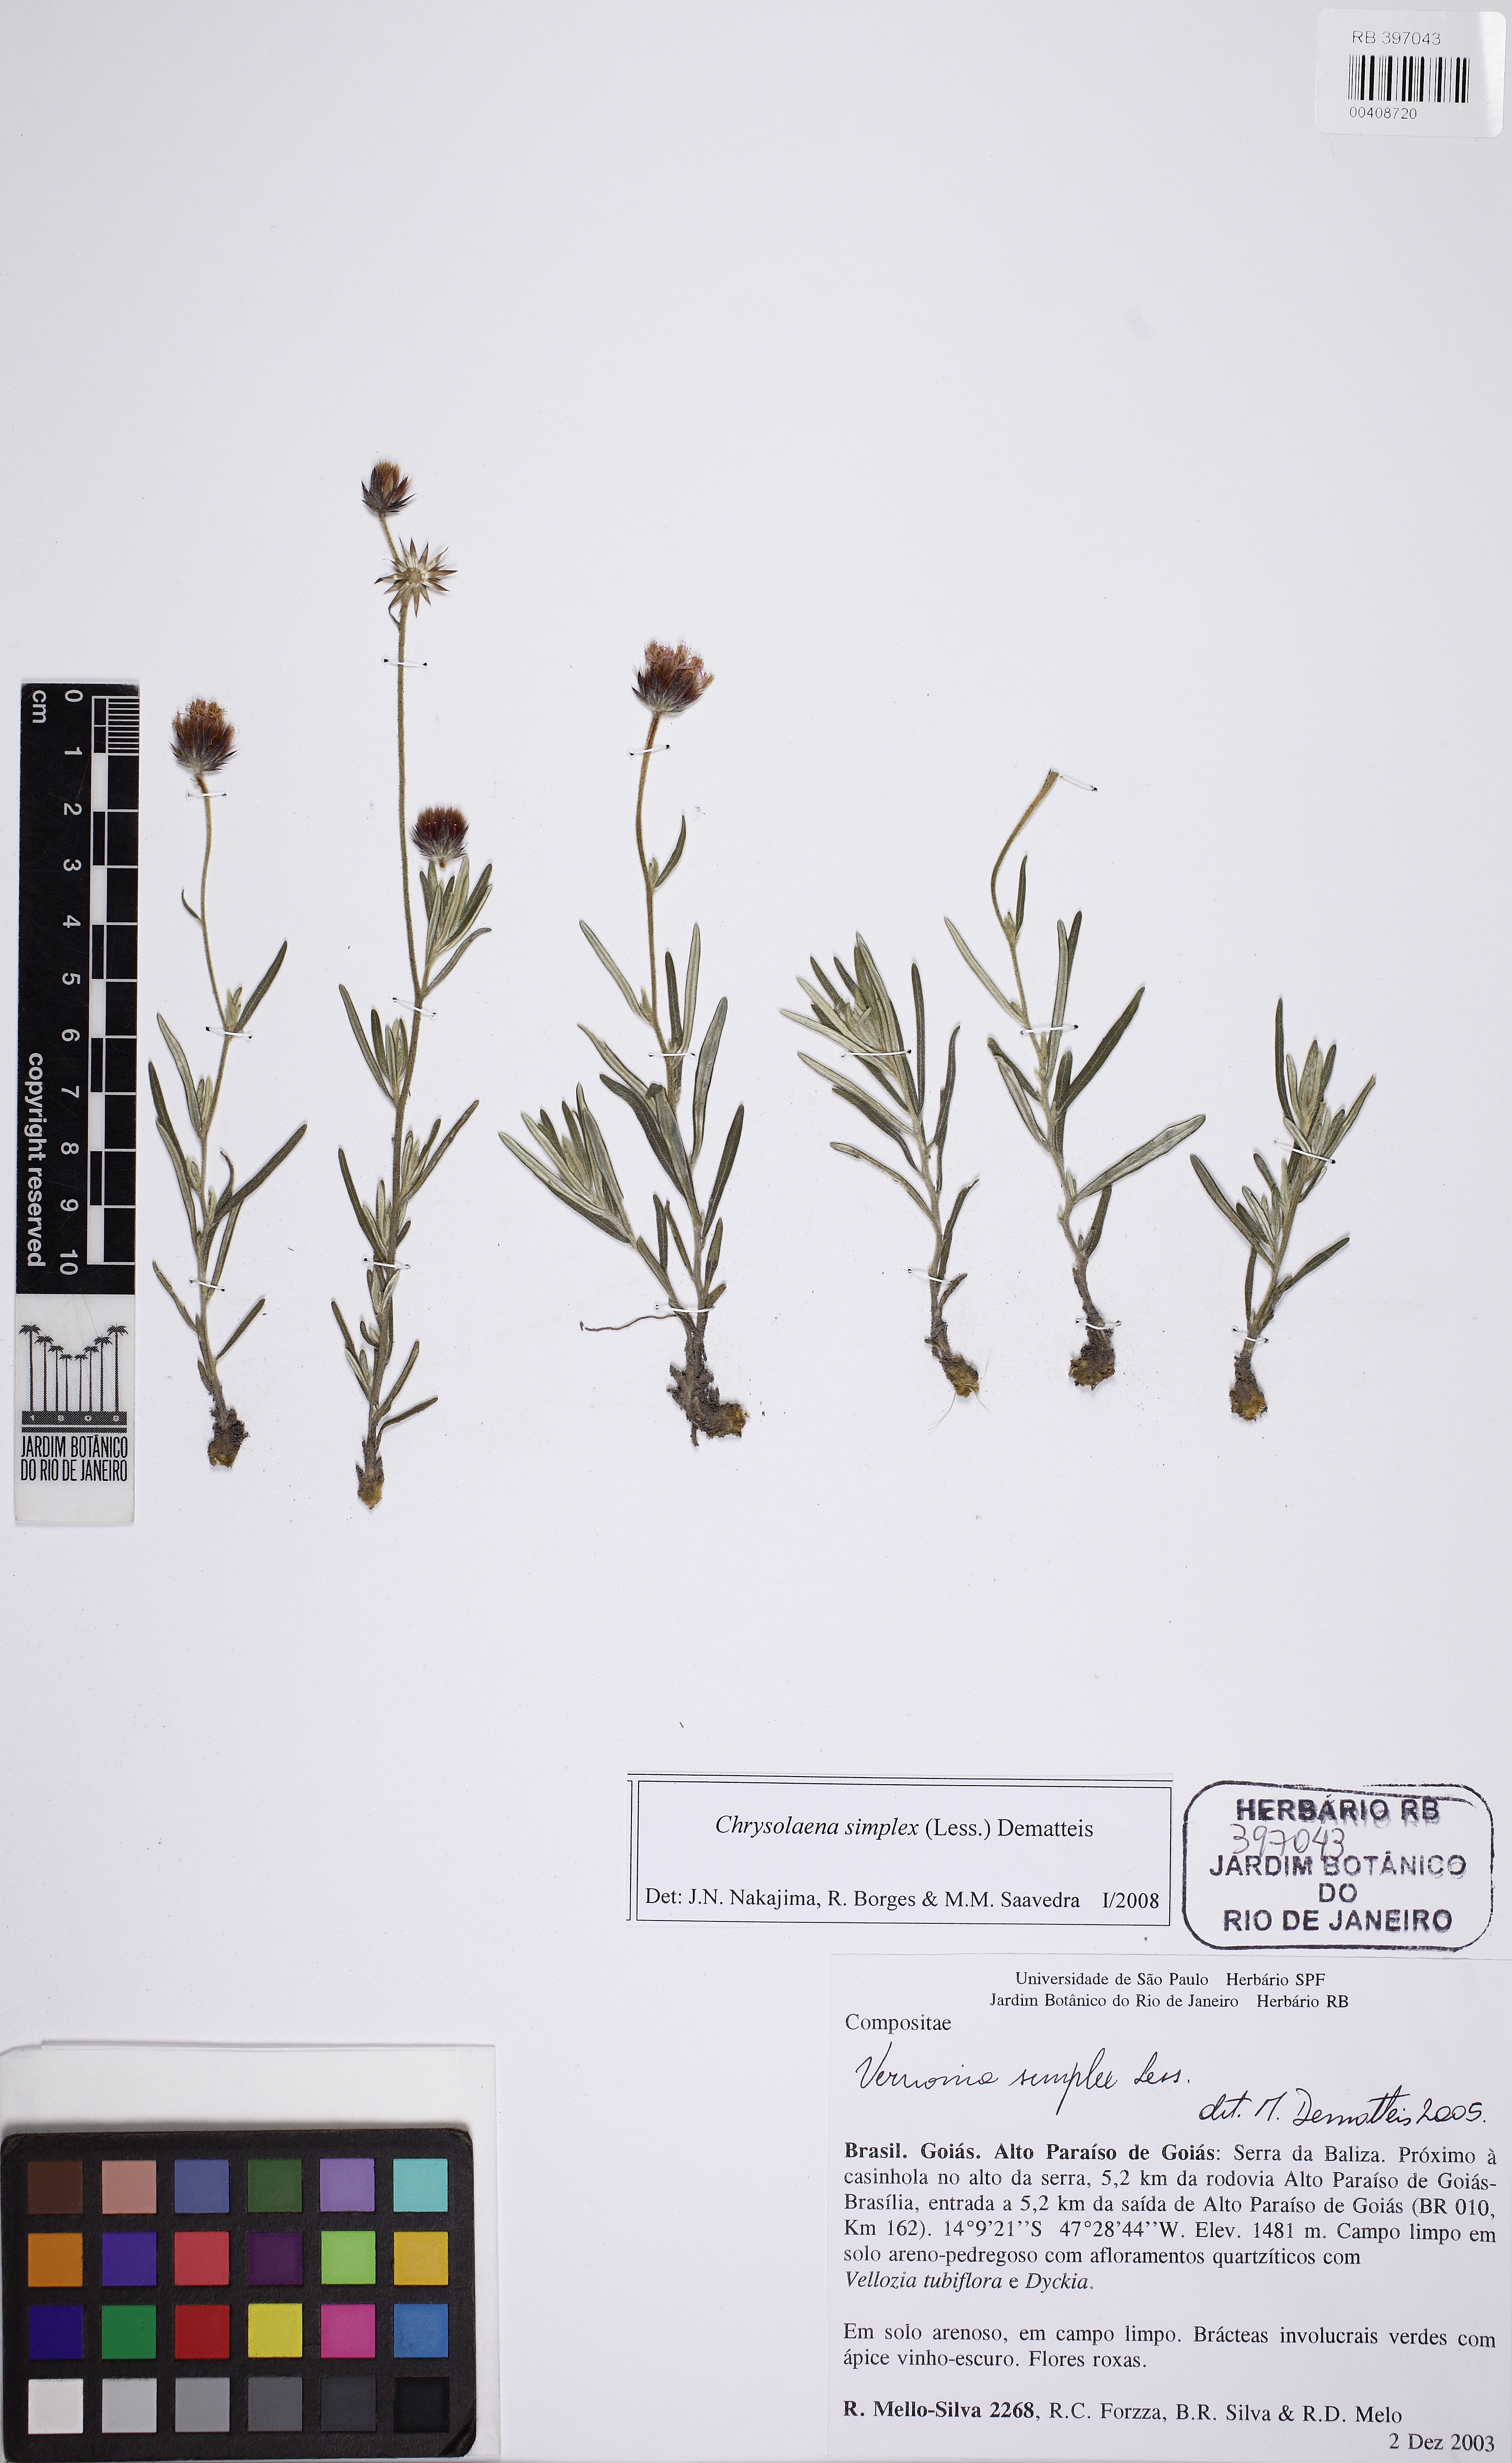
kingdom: Plantae
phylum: Tracheophyta
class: Magnoliopsida
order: Asterales
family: Asteraceae
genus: Chrysolaena
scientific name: Chrysolaena simplex
